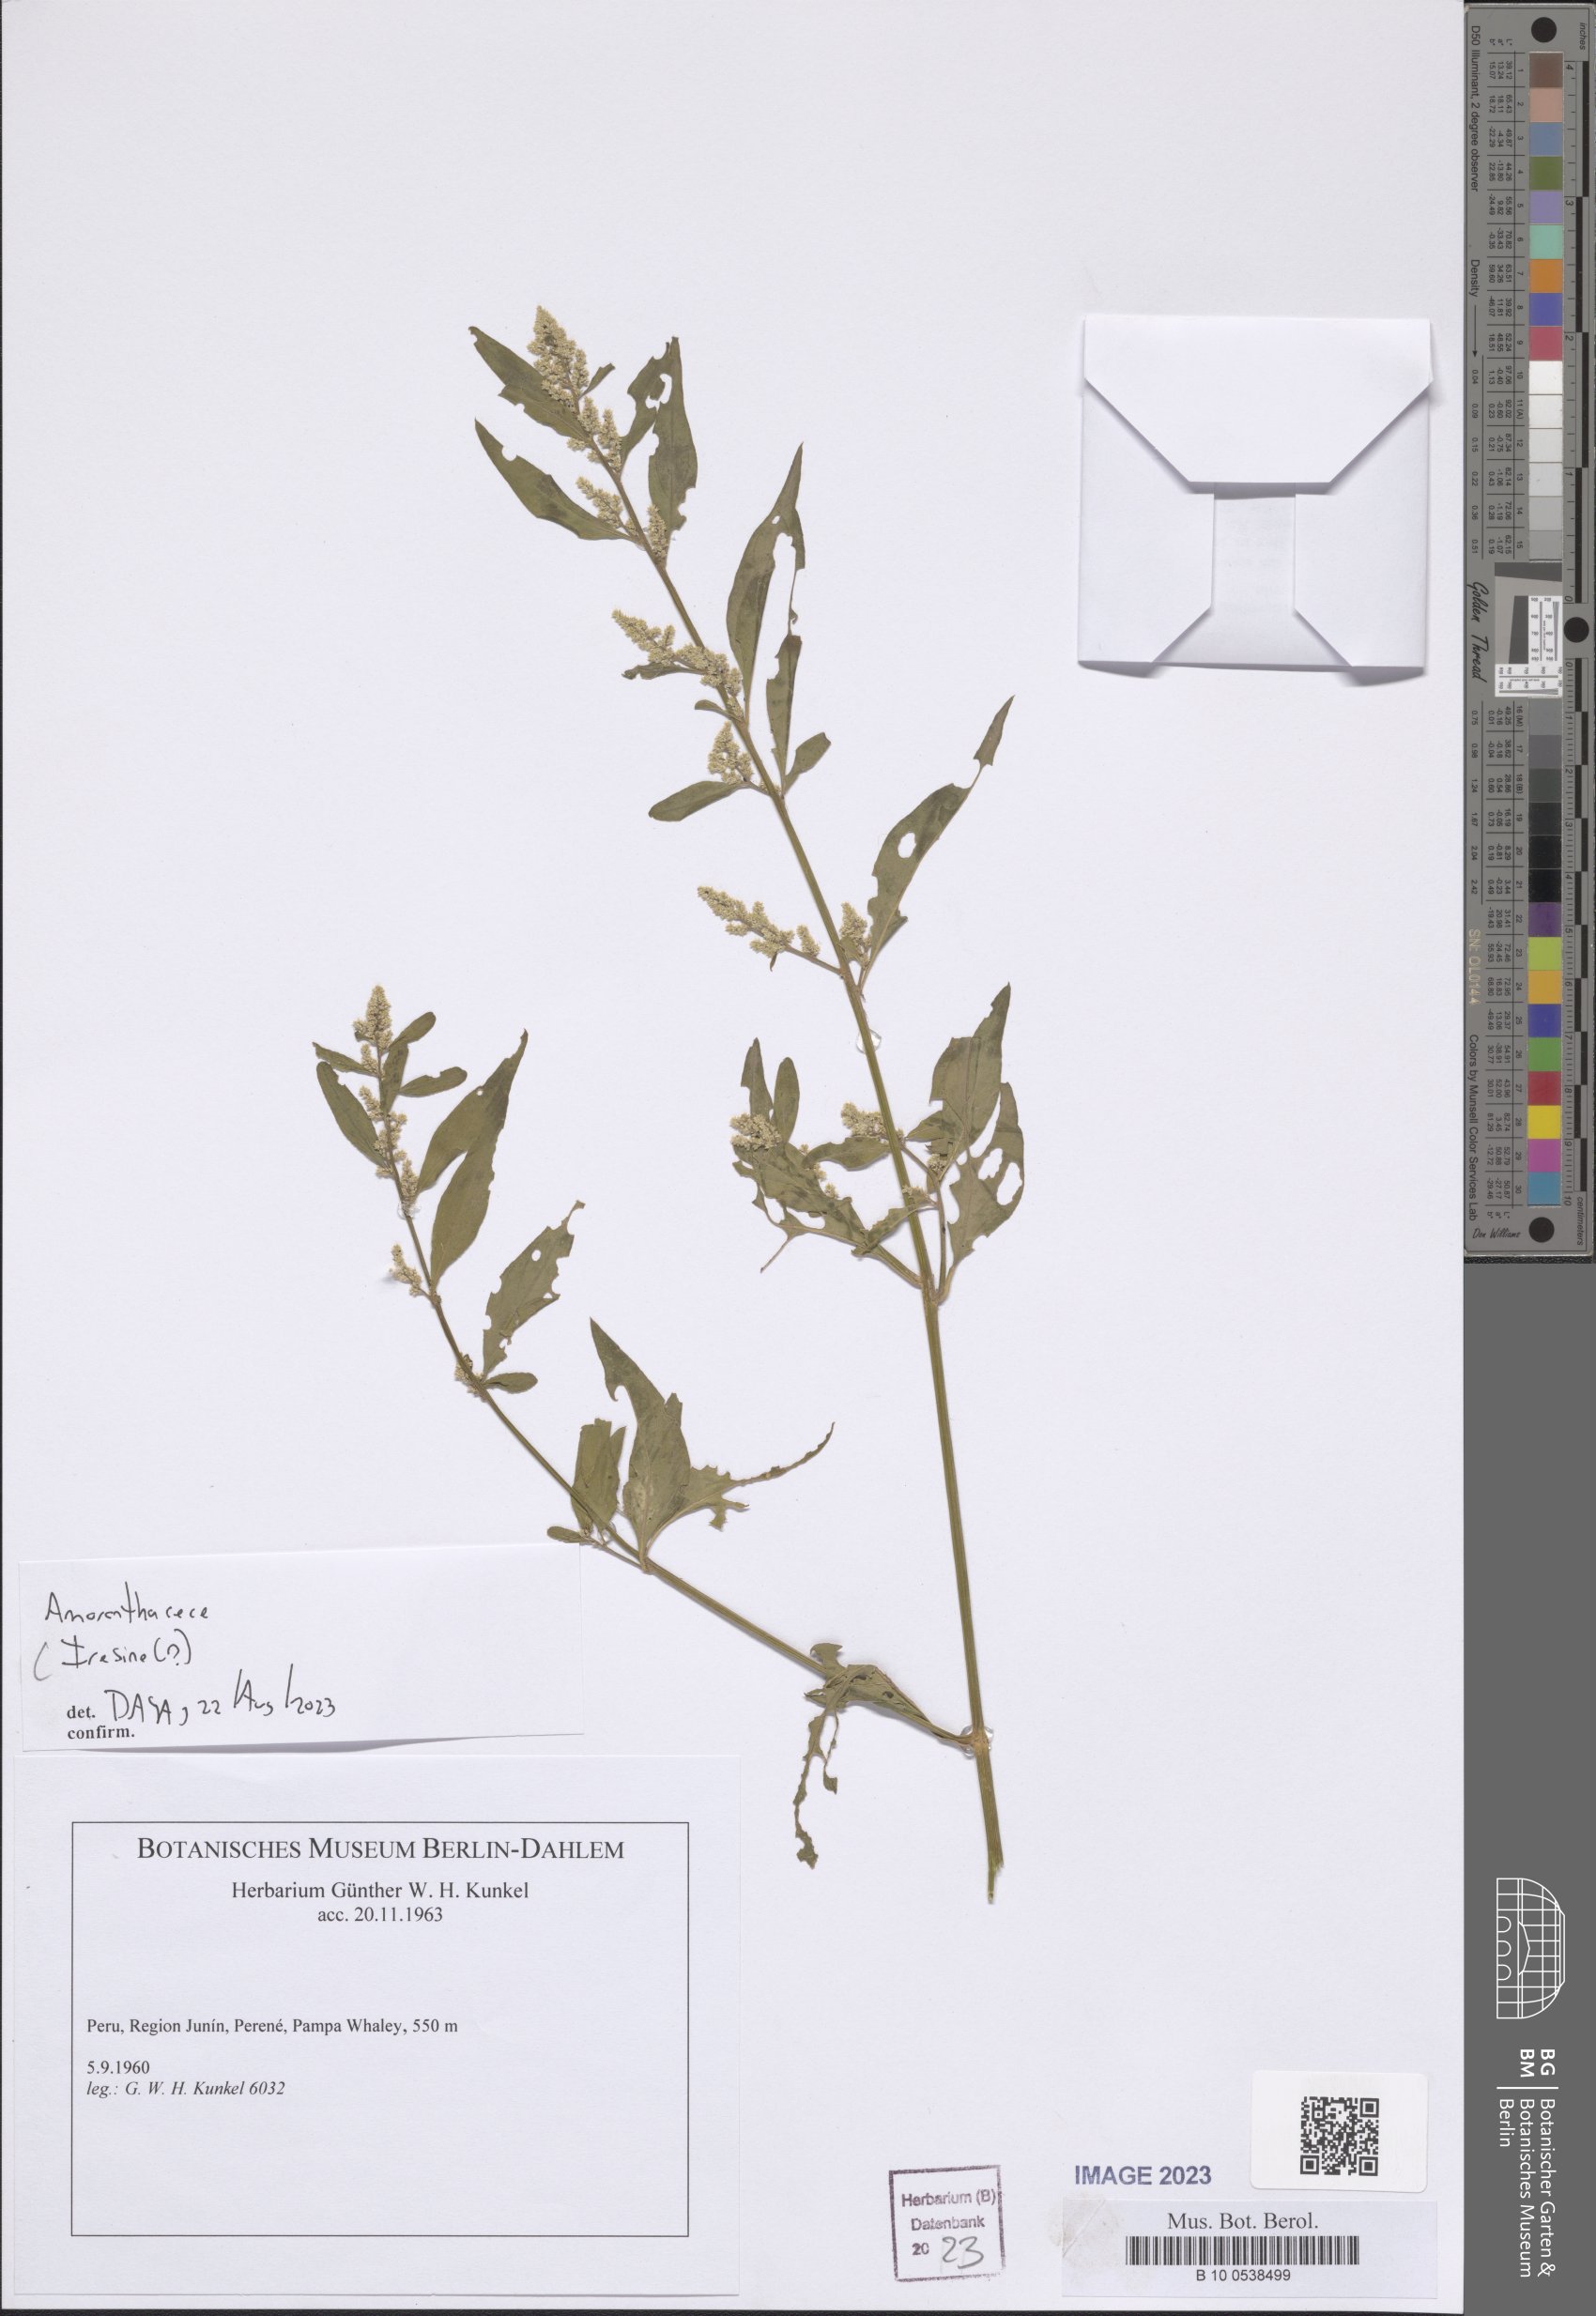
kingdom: Plantae
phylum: Tracheophyta
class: Magnoliopsida
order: Caryophyllales
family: Amaranthaceae
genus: Iresine
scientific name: Iresine
